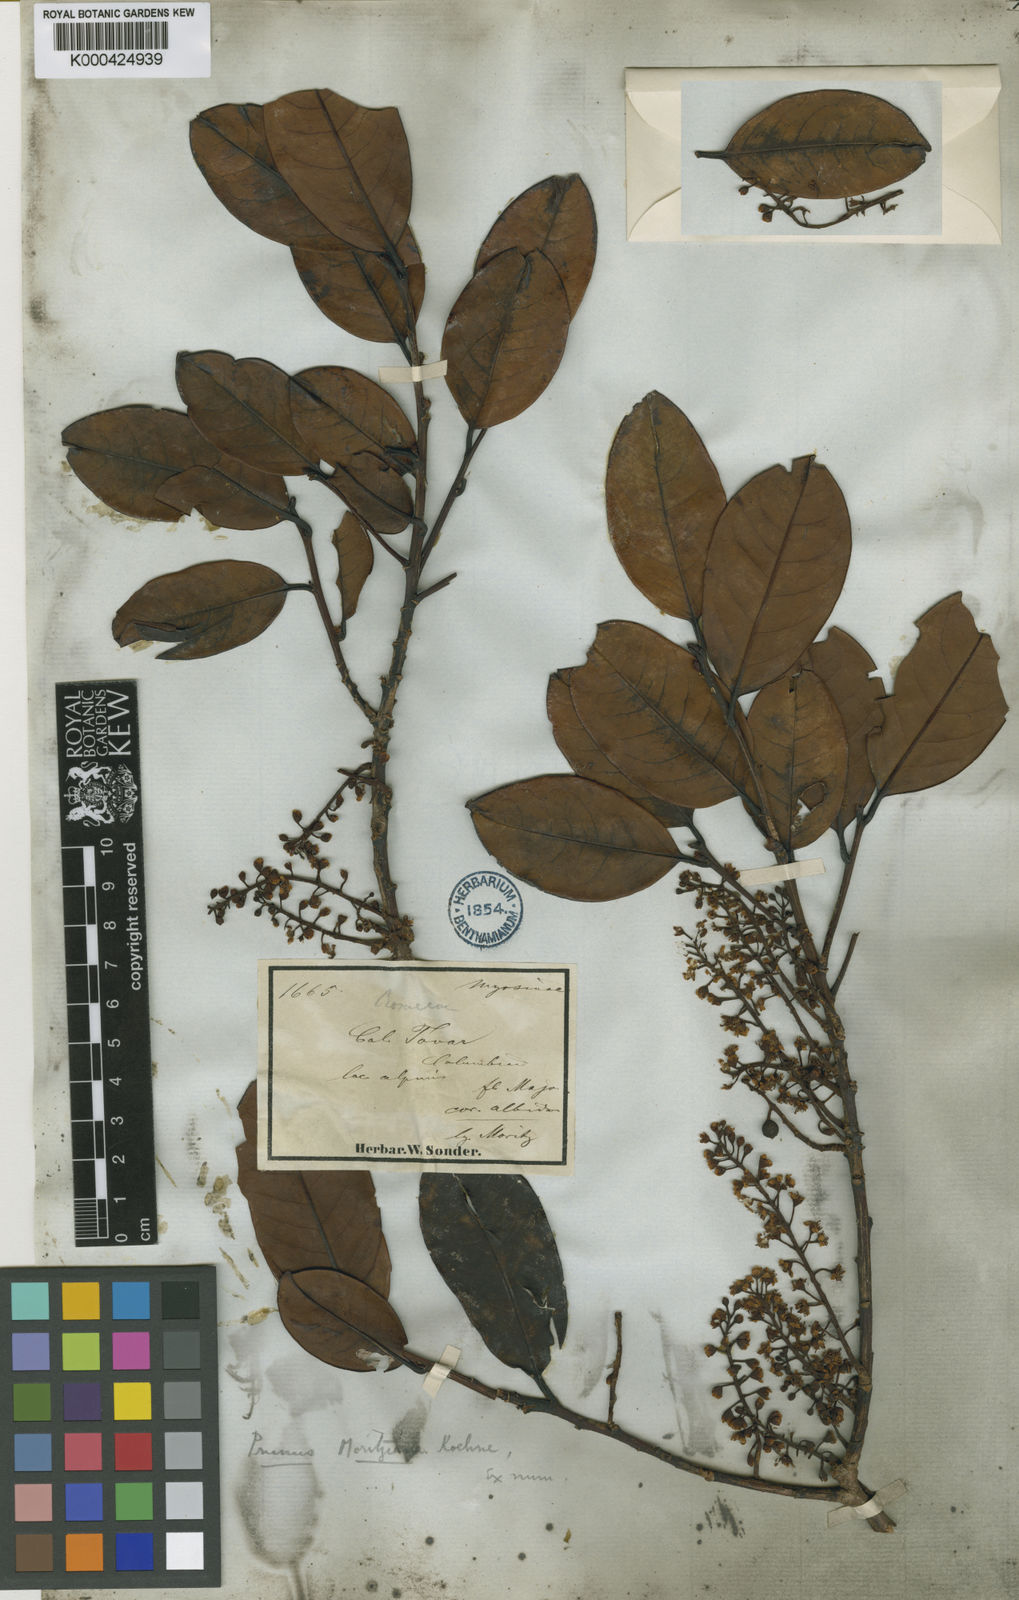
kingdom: Plantae
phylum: Tracheophyta
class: Magnoliopsida
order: Rosales
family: Rosaceae
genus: Prunus
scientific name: Prunus moritziana
